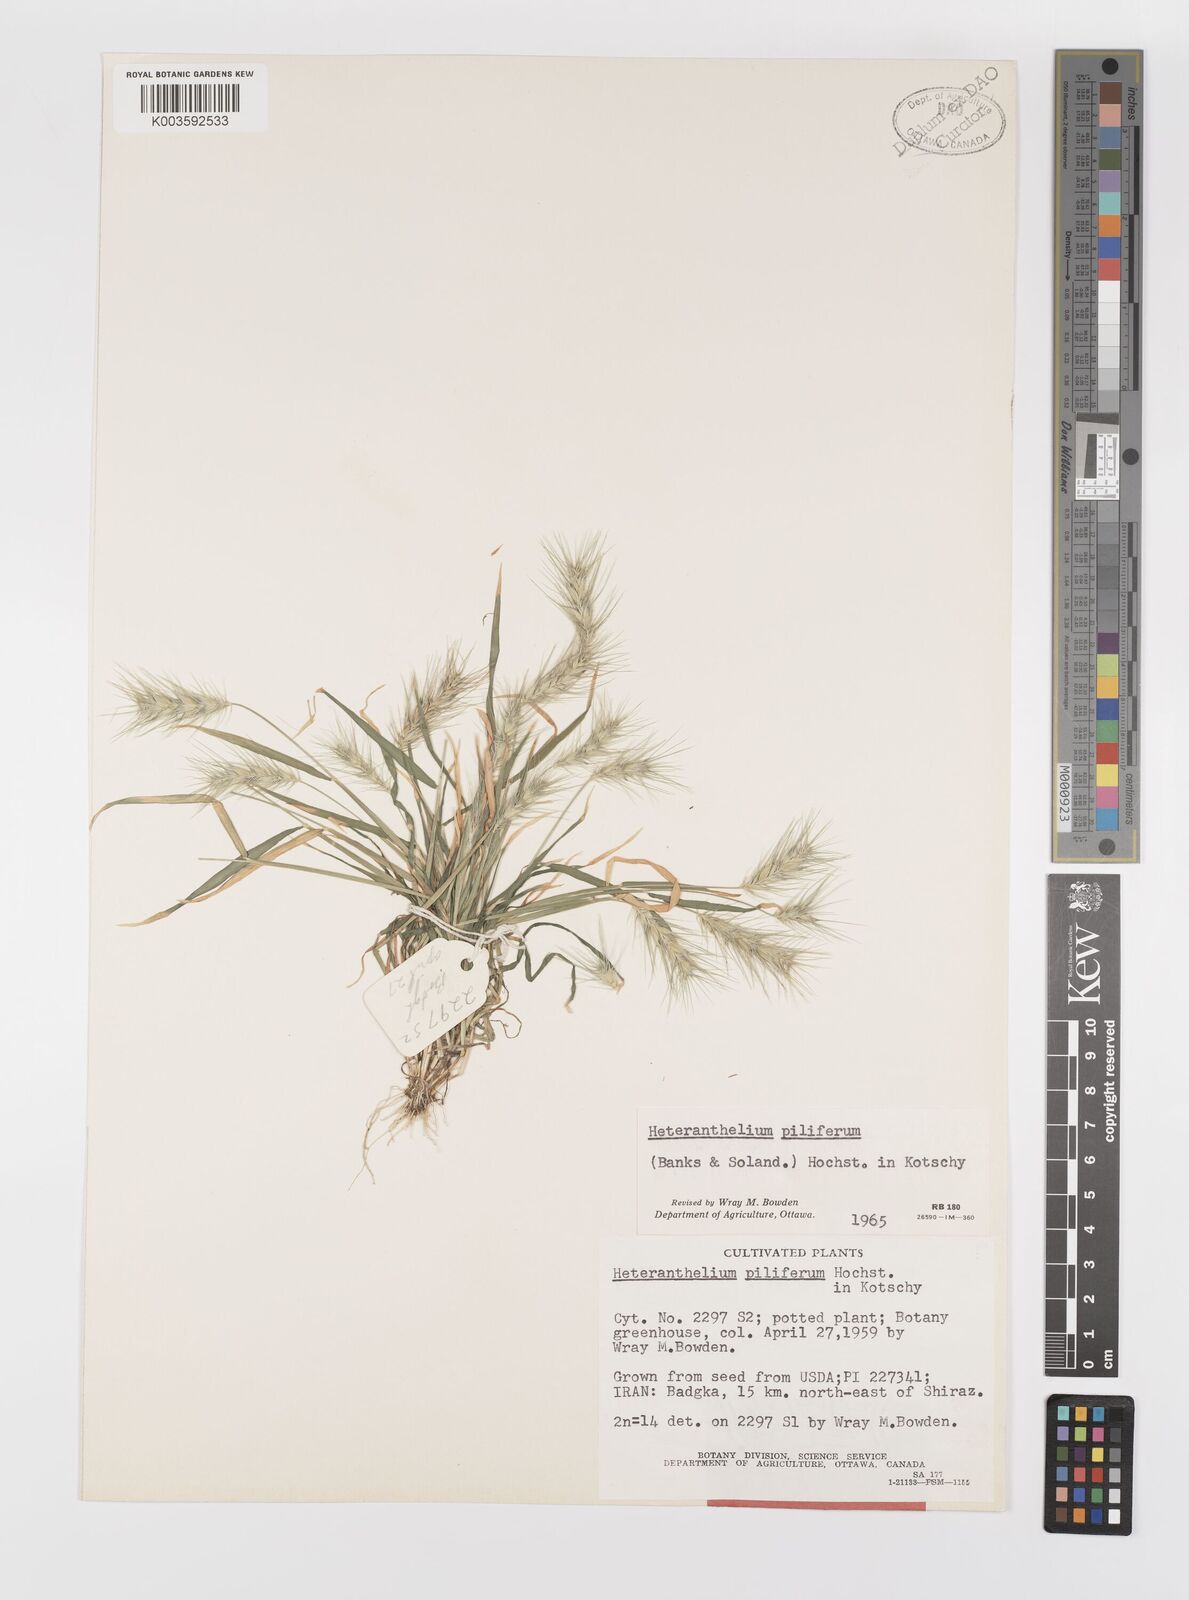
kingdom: Plantae
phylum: Tracheophyta
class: Liliopsida
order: Poales
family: Poaceae
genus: Heteranthelium
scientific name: Heteranthelium piliferum
